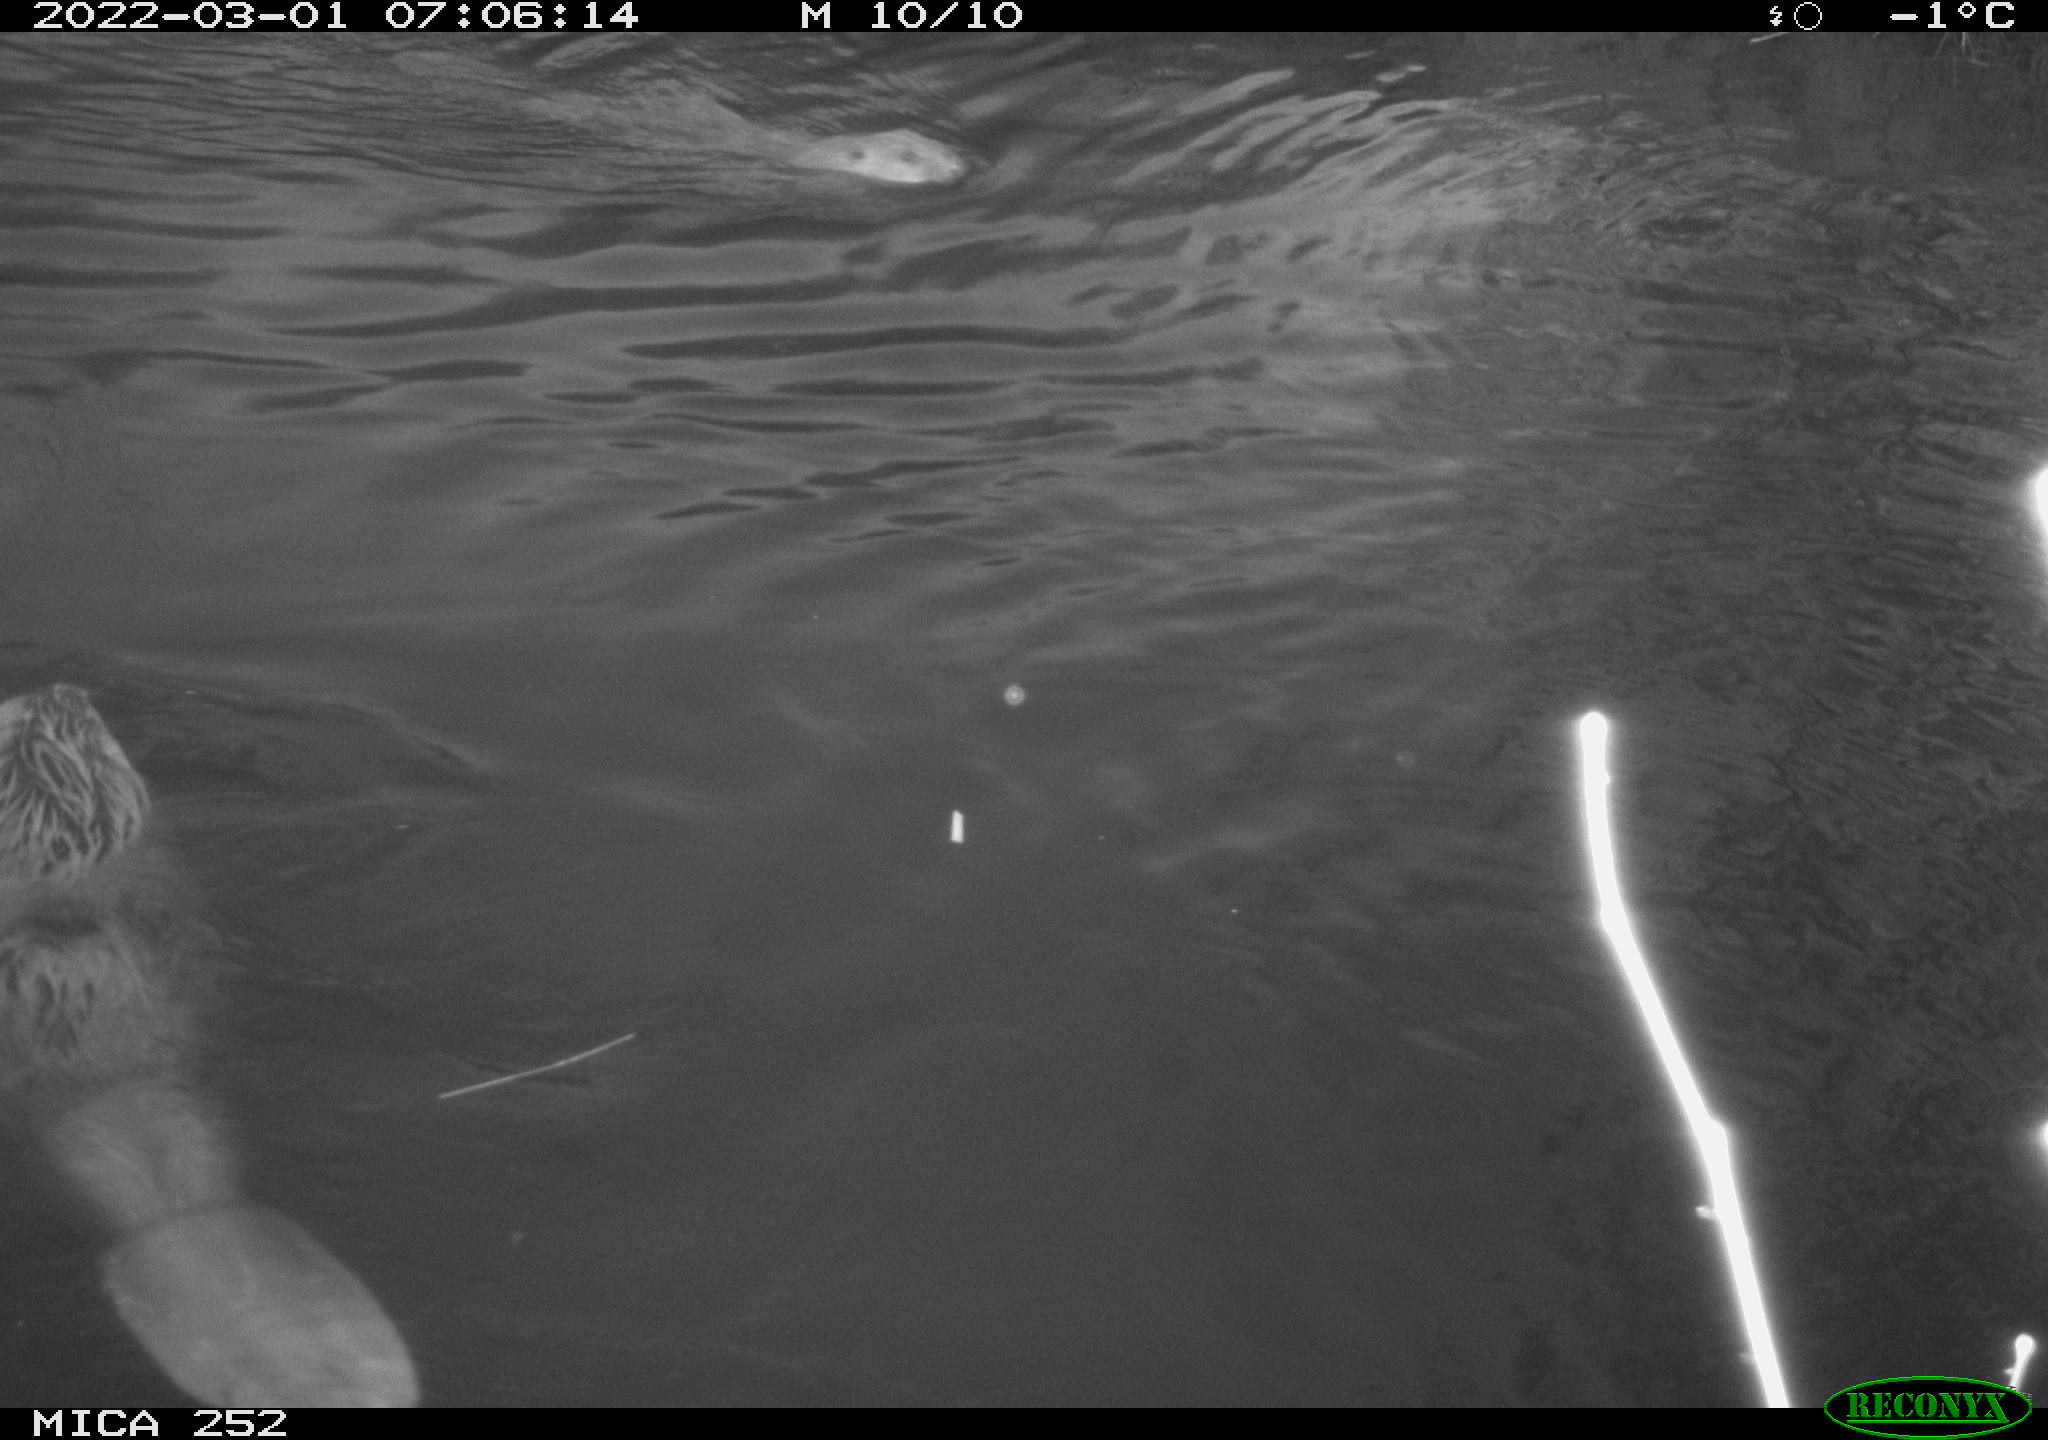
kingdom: Animalia
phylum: Chordata
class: Mammalia
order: Rodentia
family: Castoridae
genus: Castor
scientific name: Castor fiber
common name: Eurasian beaver
